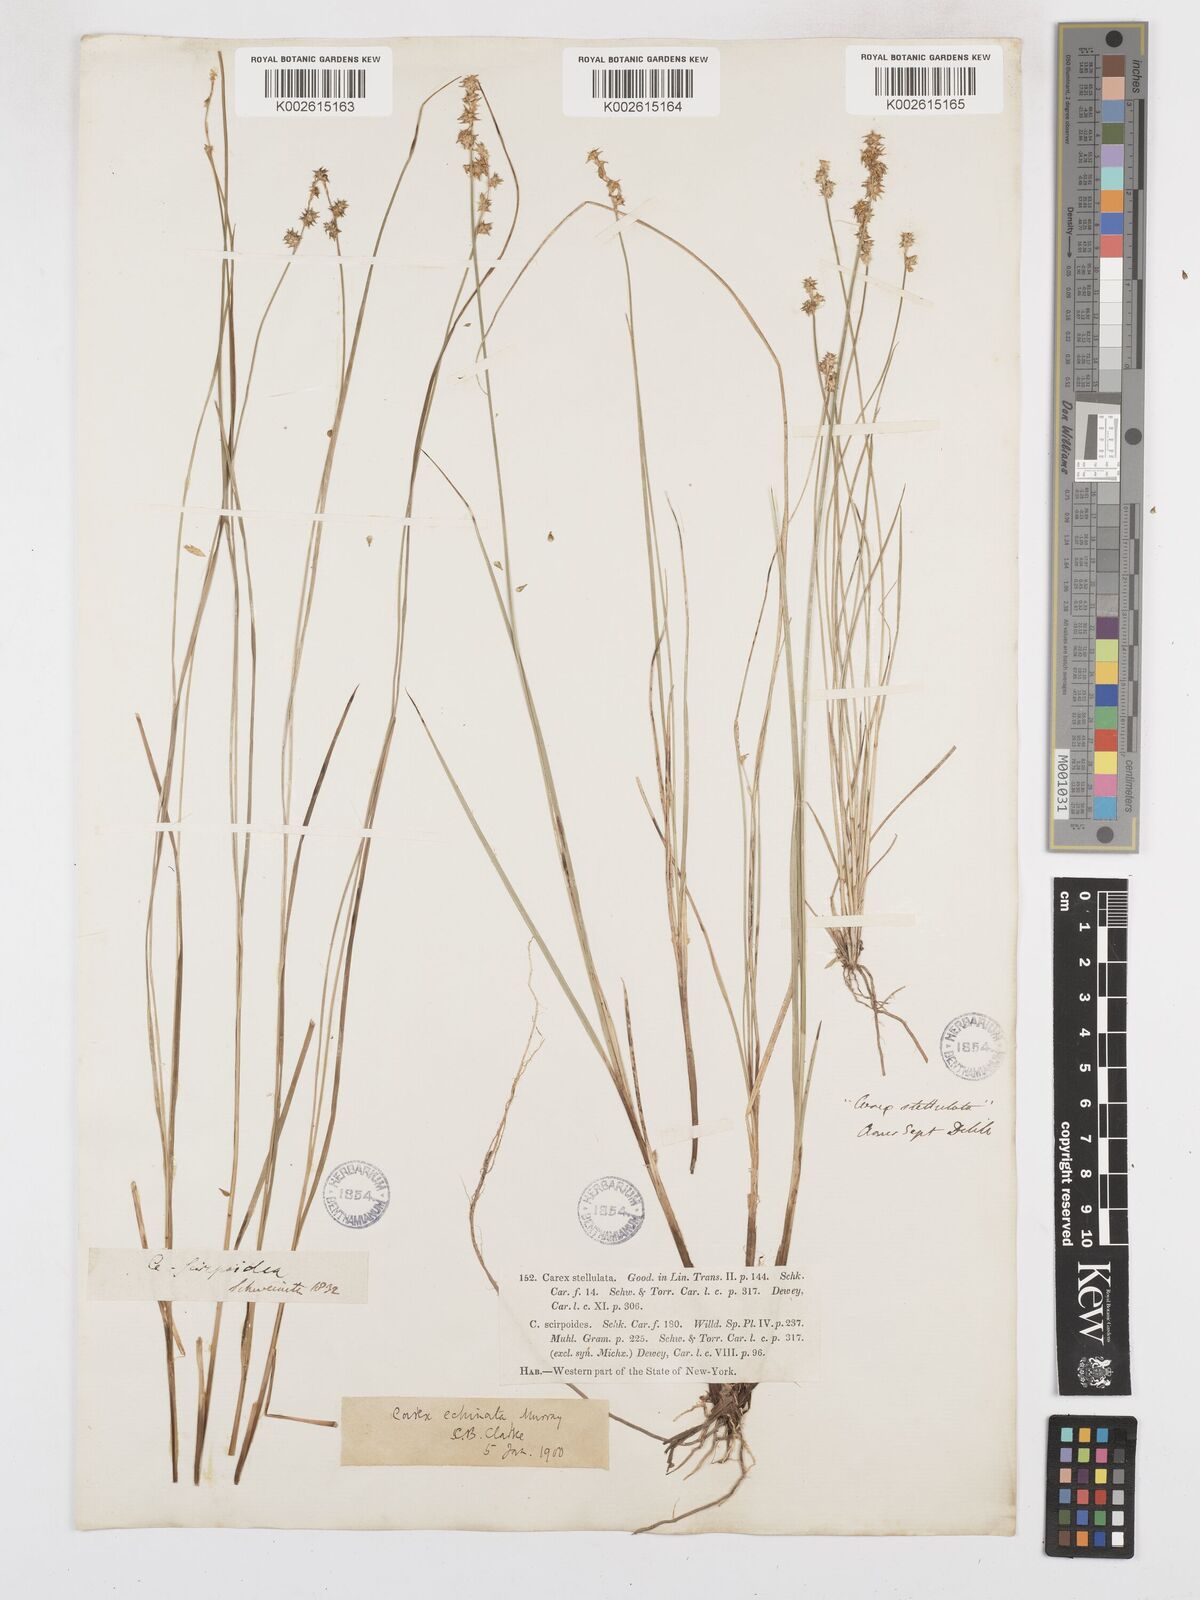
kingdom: Plantae
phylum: Tracheophyta
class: Liliopsida
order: Poales
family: Cyperaceae
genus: Carex
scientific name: Carex echinata
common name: Star sedge
